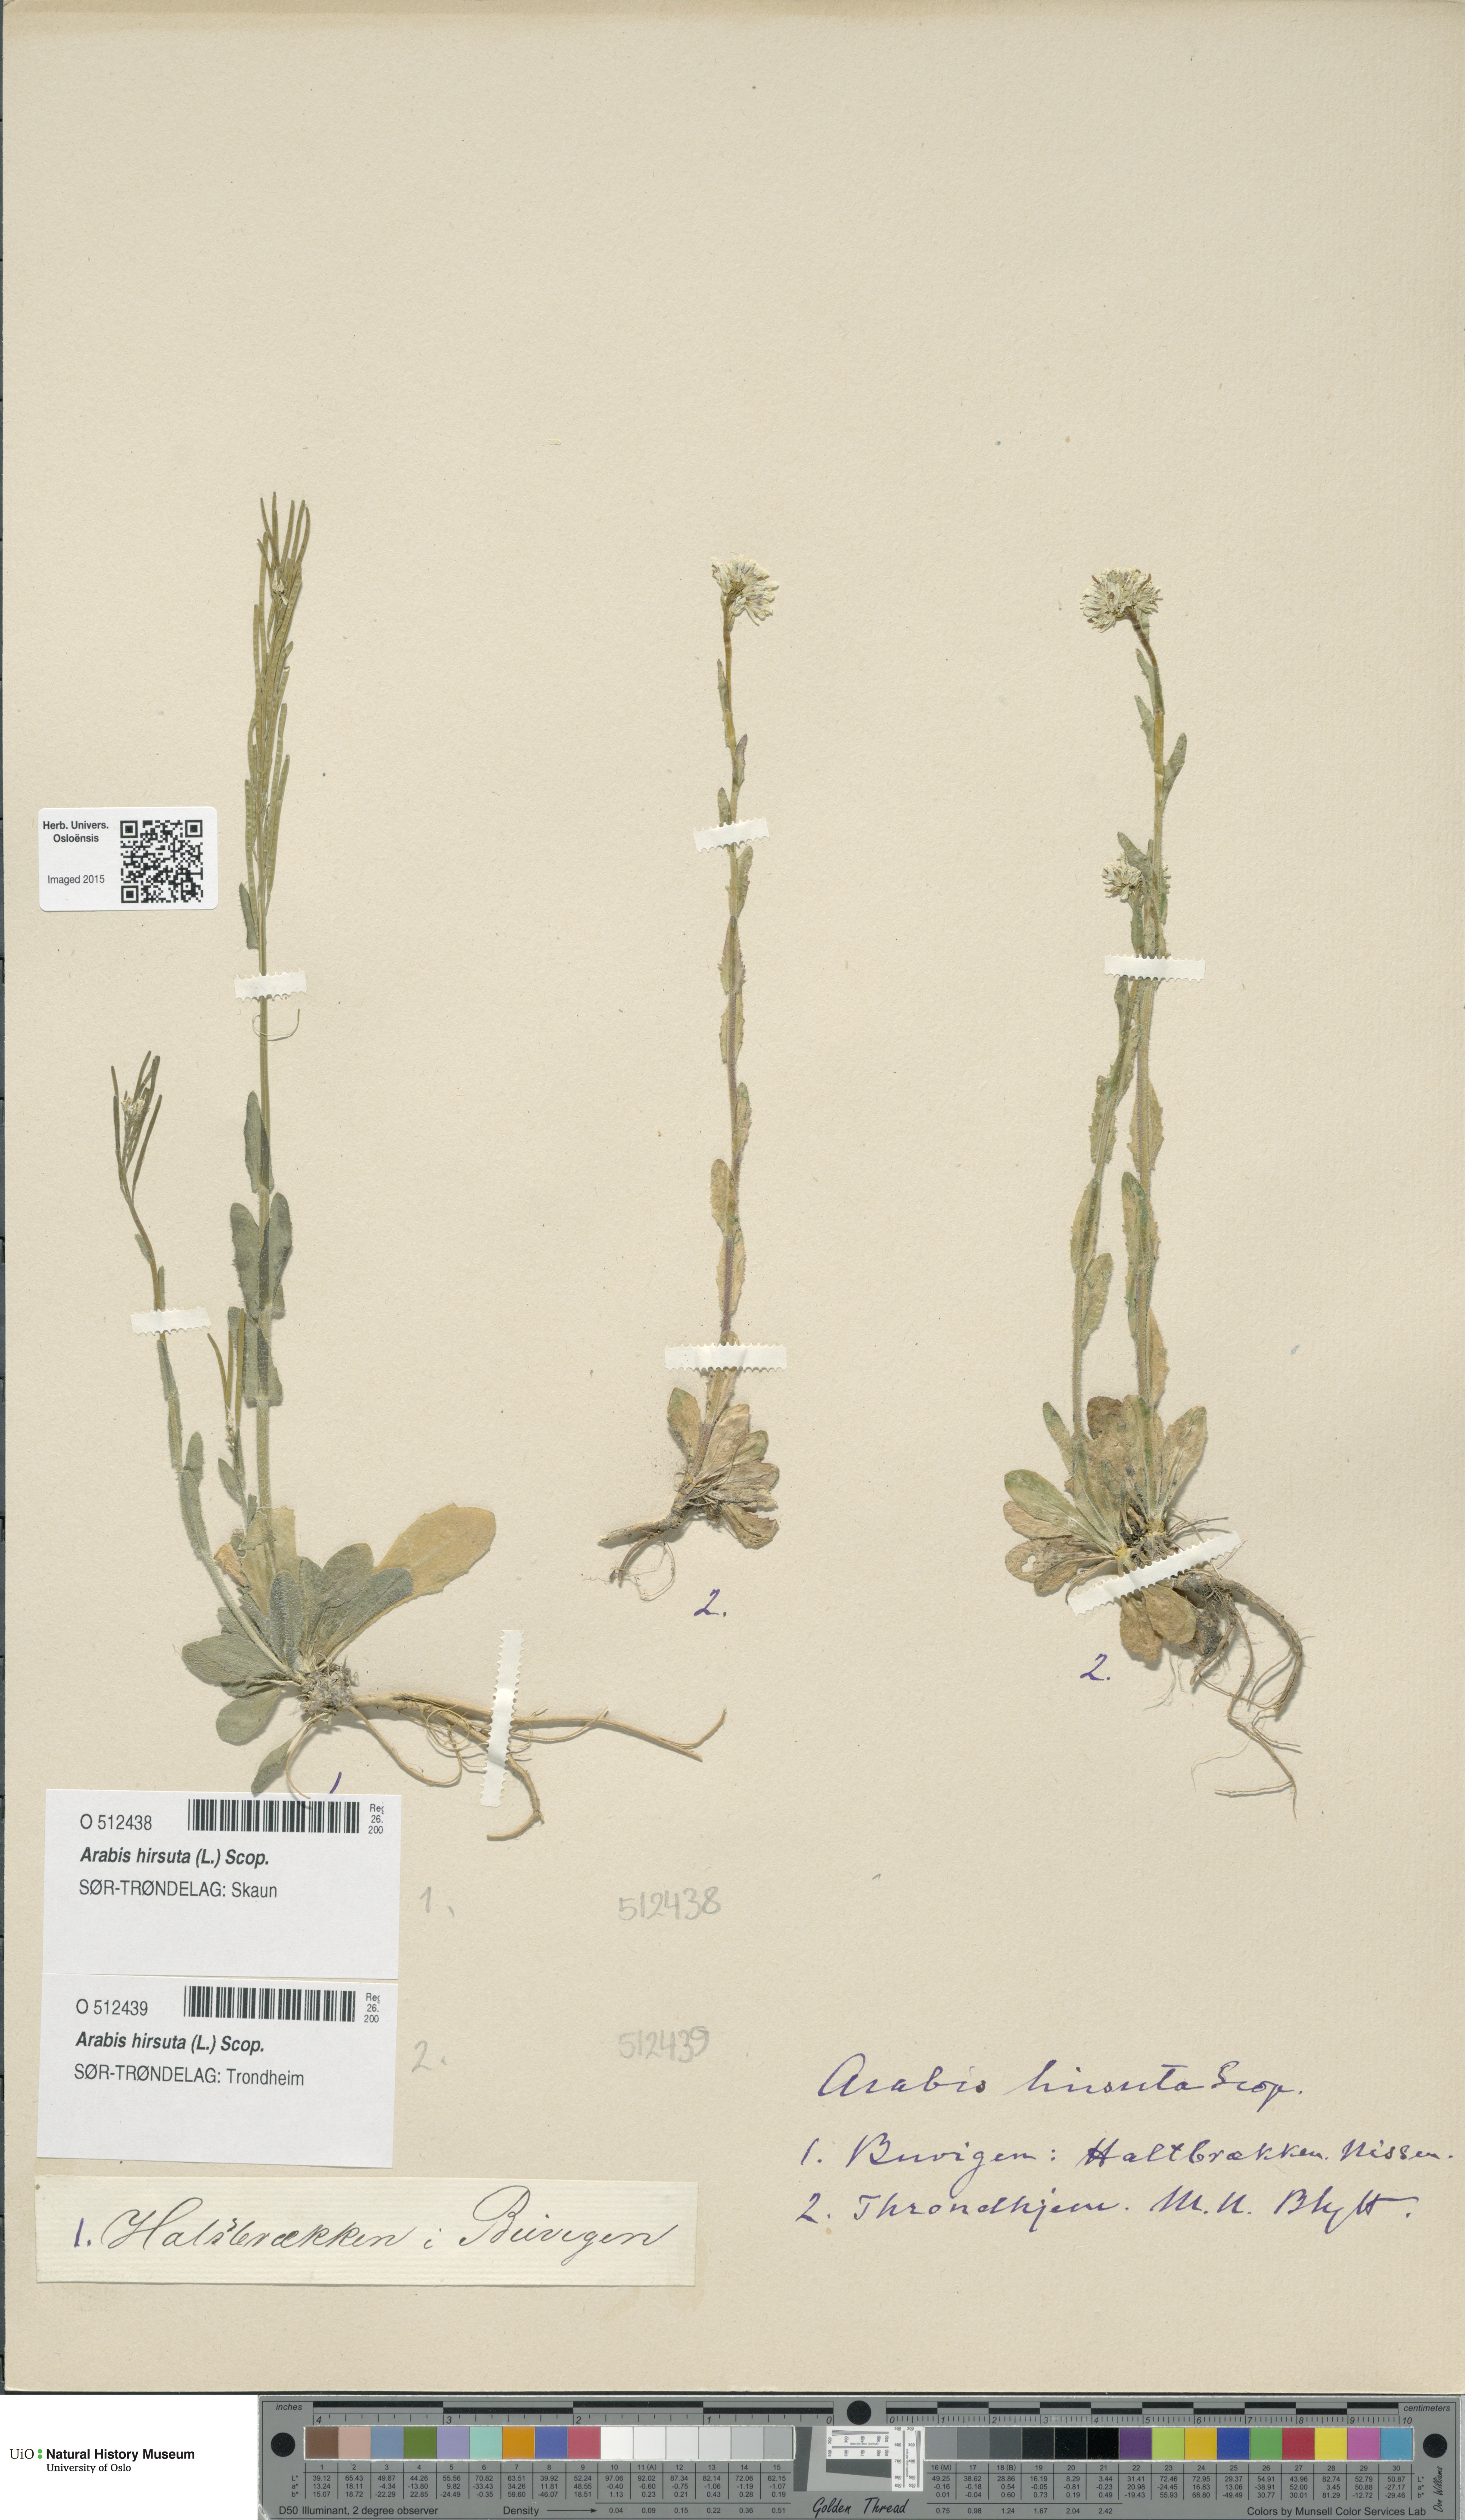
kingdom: Plantae
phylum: Tracheophyta
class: Magnoliopsida
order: Brassicales
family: Brassicaceae
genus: Arabis
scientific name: Arabis hirsuta
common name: Hairy rock-cress
